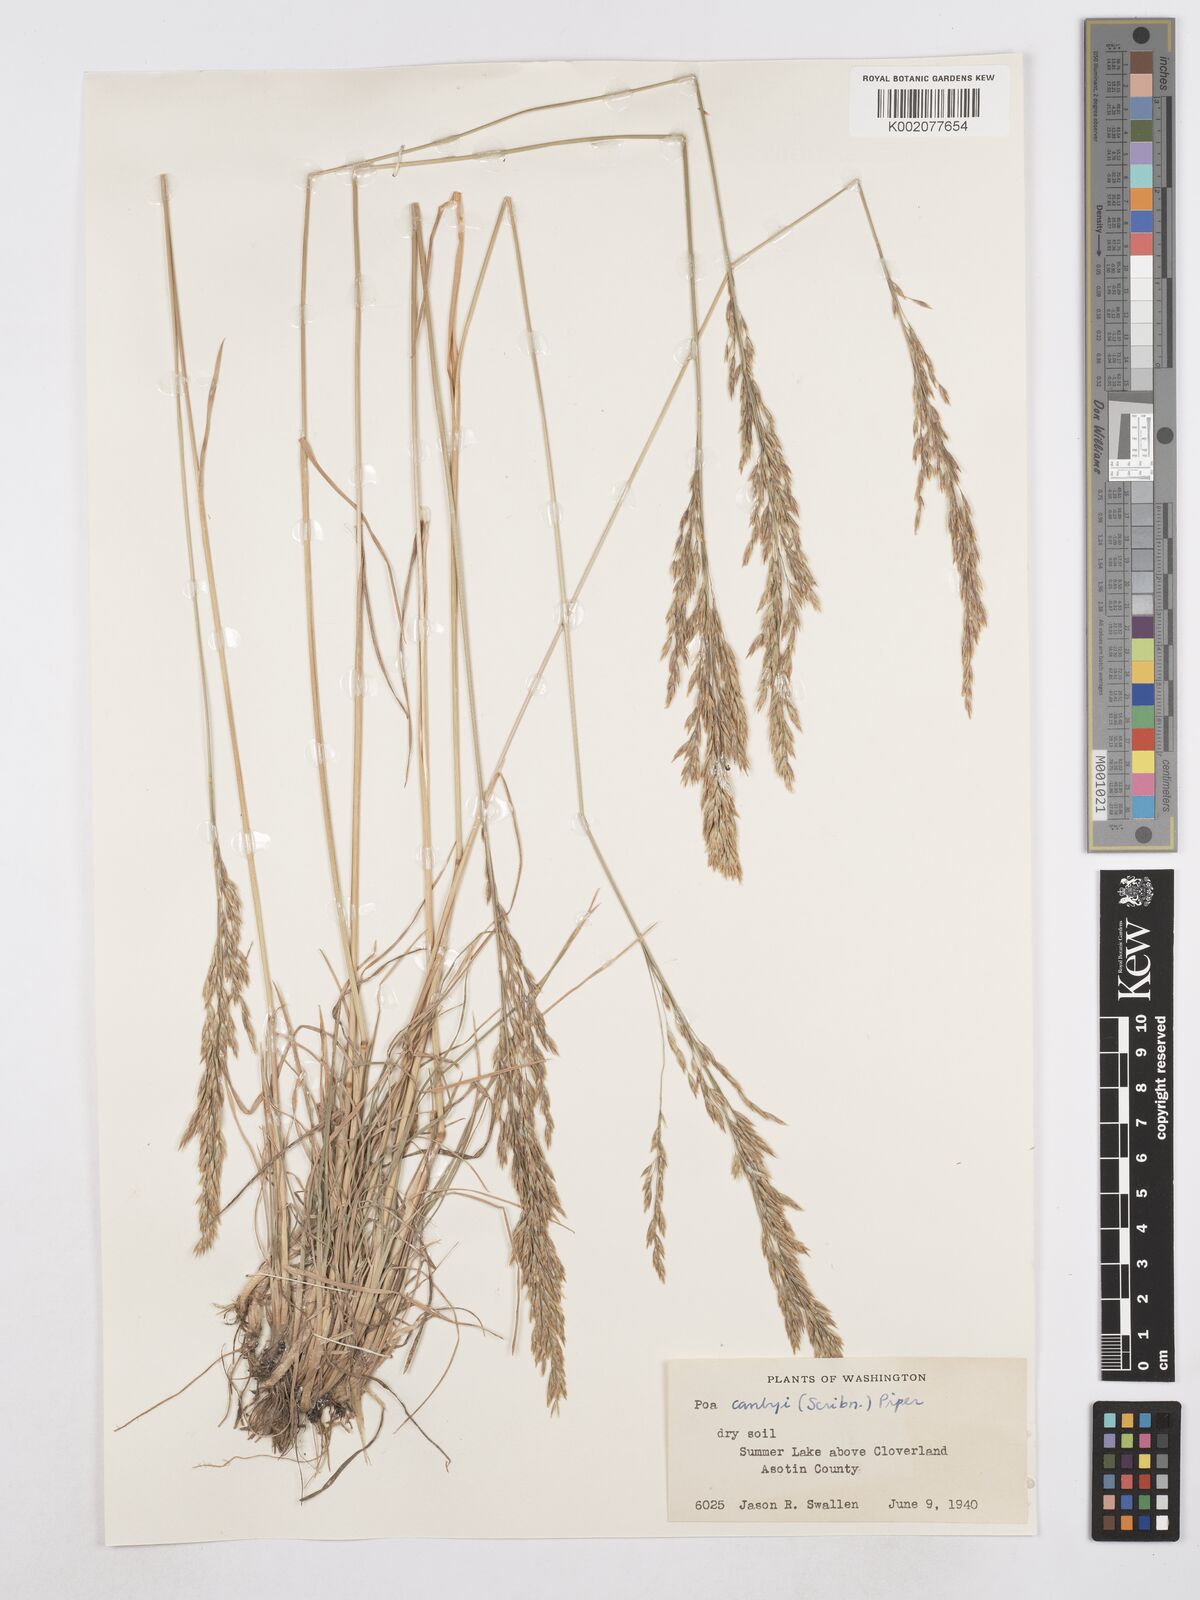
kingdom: Plantae
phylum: Tracheophyta
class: Liliopsida
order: Poales
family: Poaceae
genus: Poa
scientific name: Poa secunda
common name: Sandberg bluegrass
